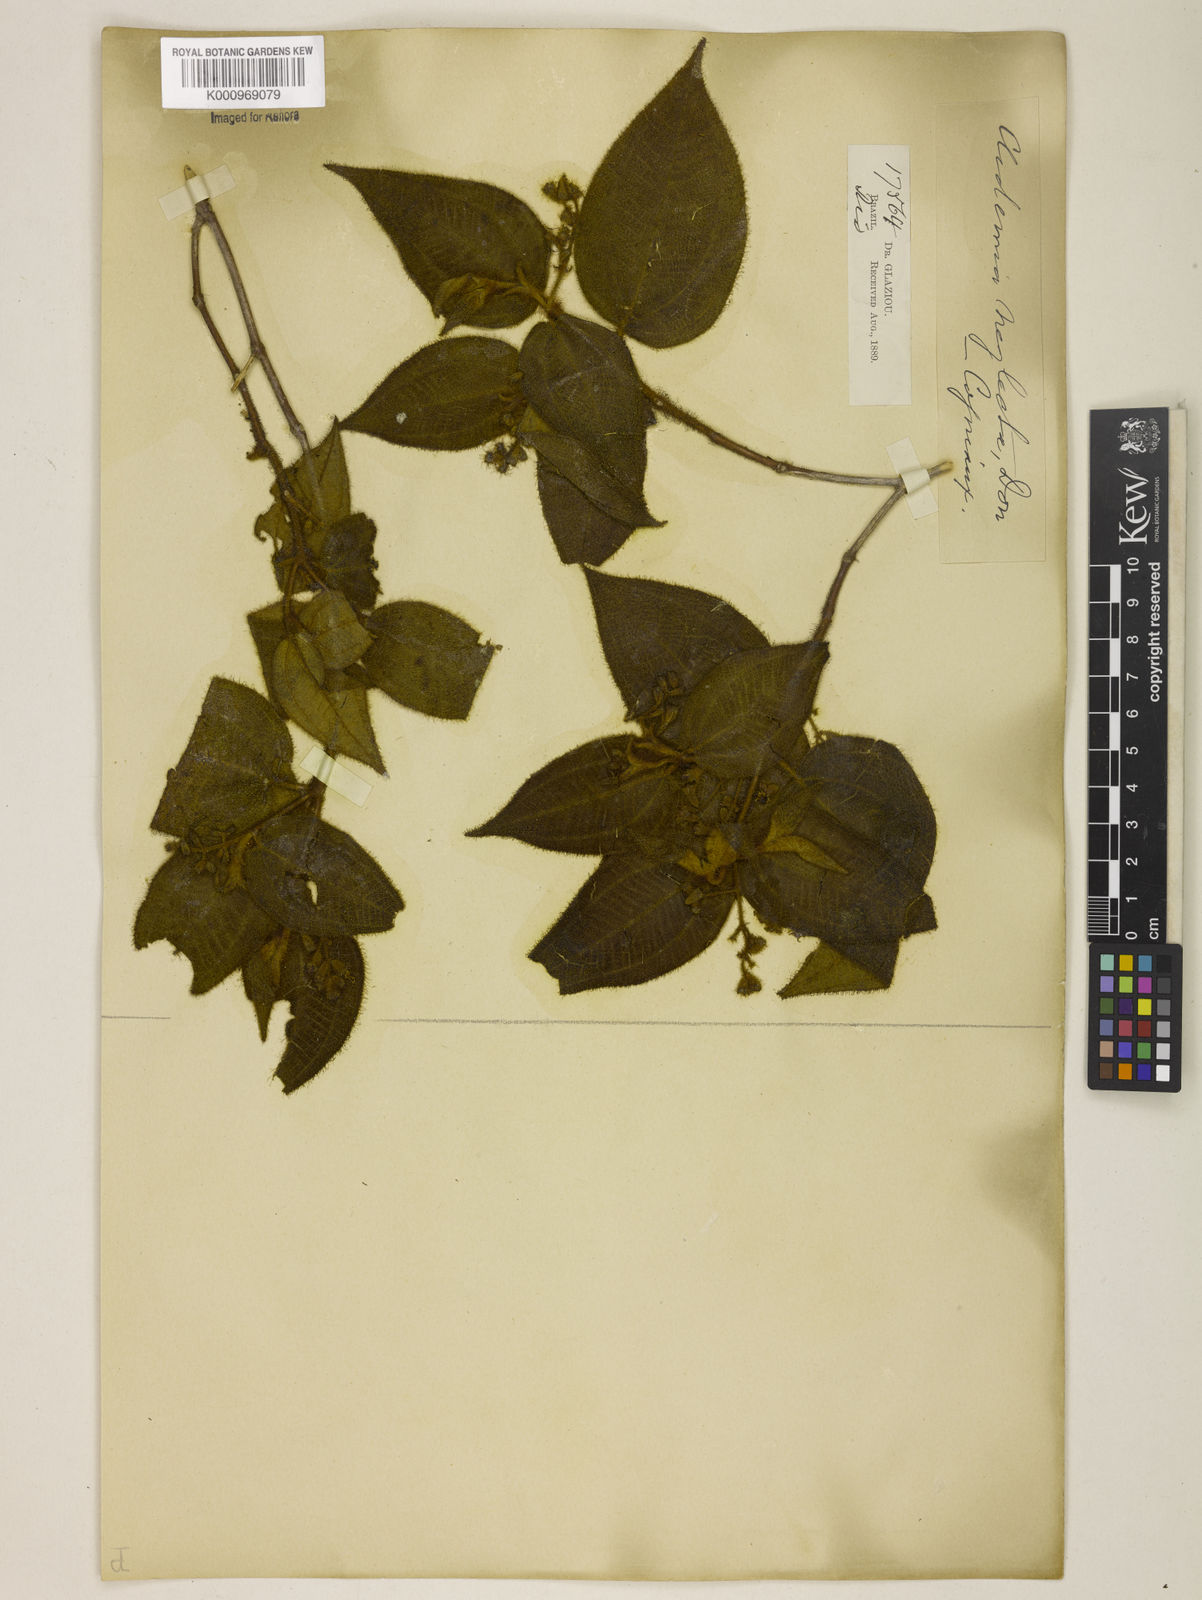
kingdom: Plantae
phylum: Tracheophyta
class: Magnoliopsida
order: Myrtales
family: Melastomataceae
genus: Miconia
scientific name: Miconia dependens
